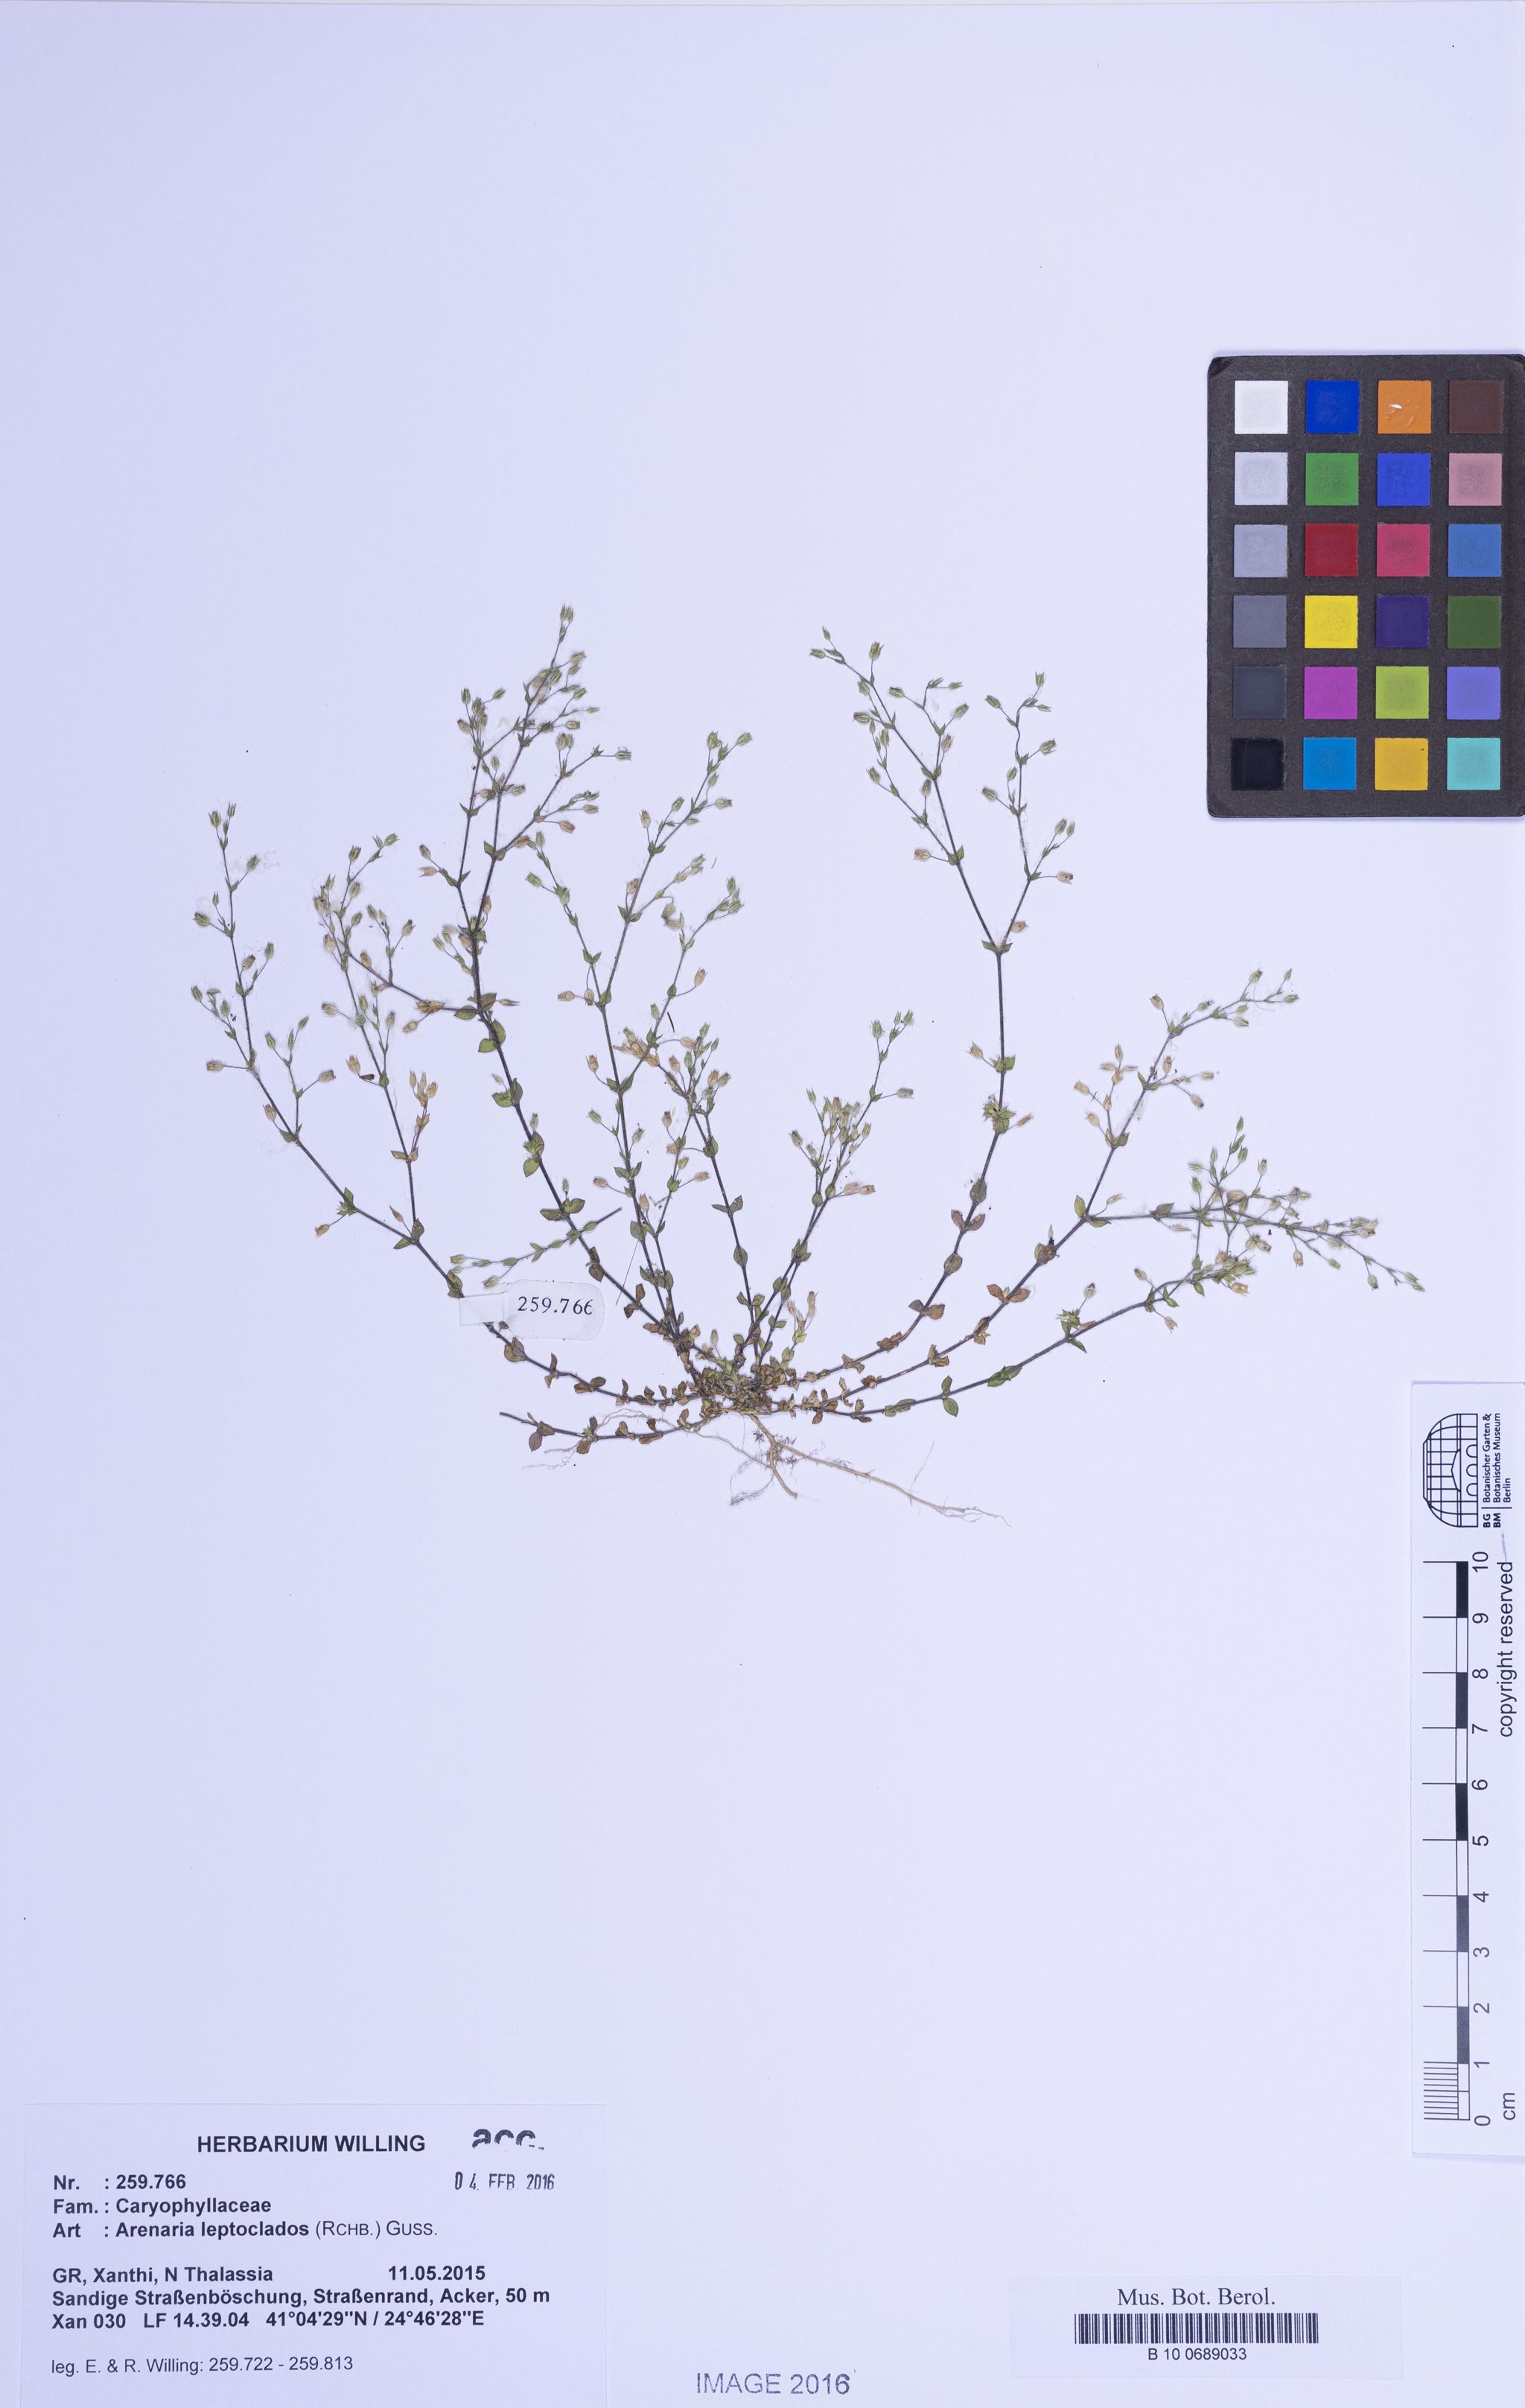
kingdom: Plantae
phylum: Tracheophyta
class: Magnoliopsida
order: Caryophyllales
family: Caryophyllaceae
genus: Arenaria
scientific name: Arenaria leptoclados
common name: Thyme-leaved sandwort
